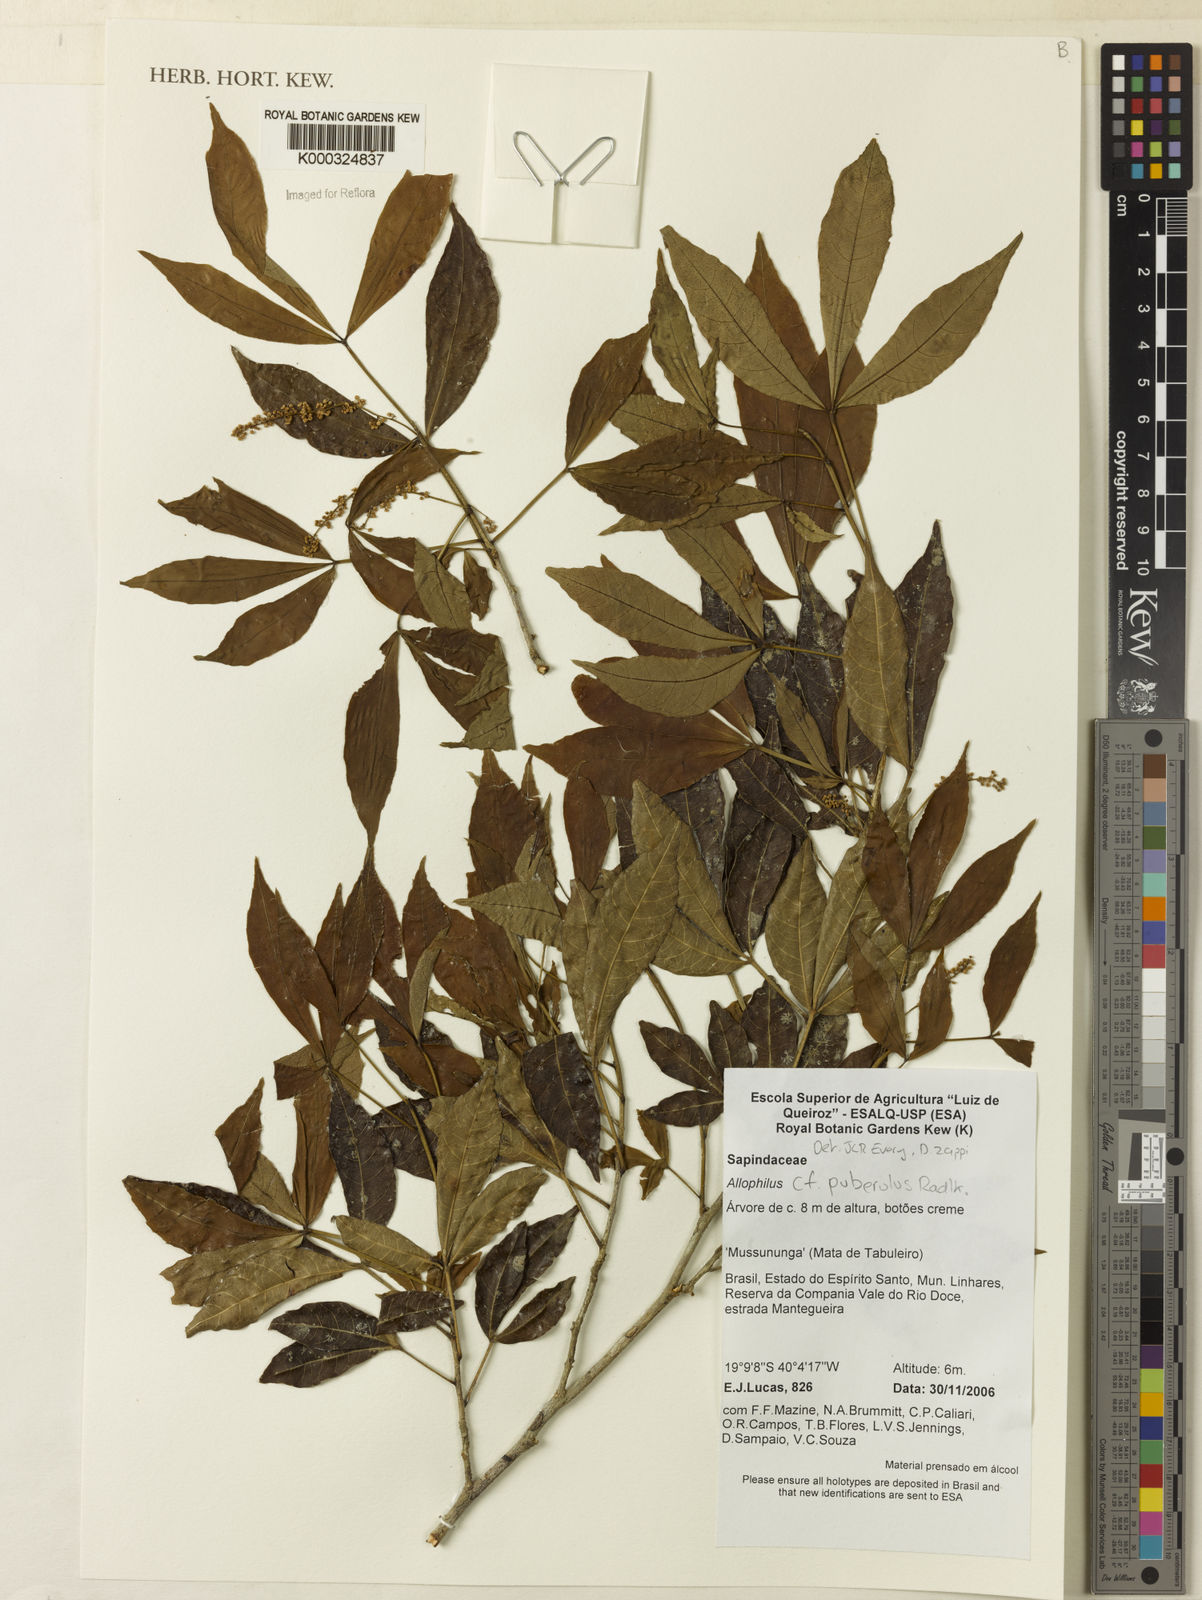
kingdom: Plantae
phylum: Tracheophyta
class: Magnoliopsida
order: Sapindales
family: Sapindaceae
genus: Allophylus
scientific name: Allophylus puberulus
